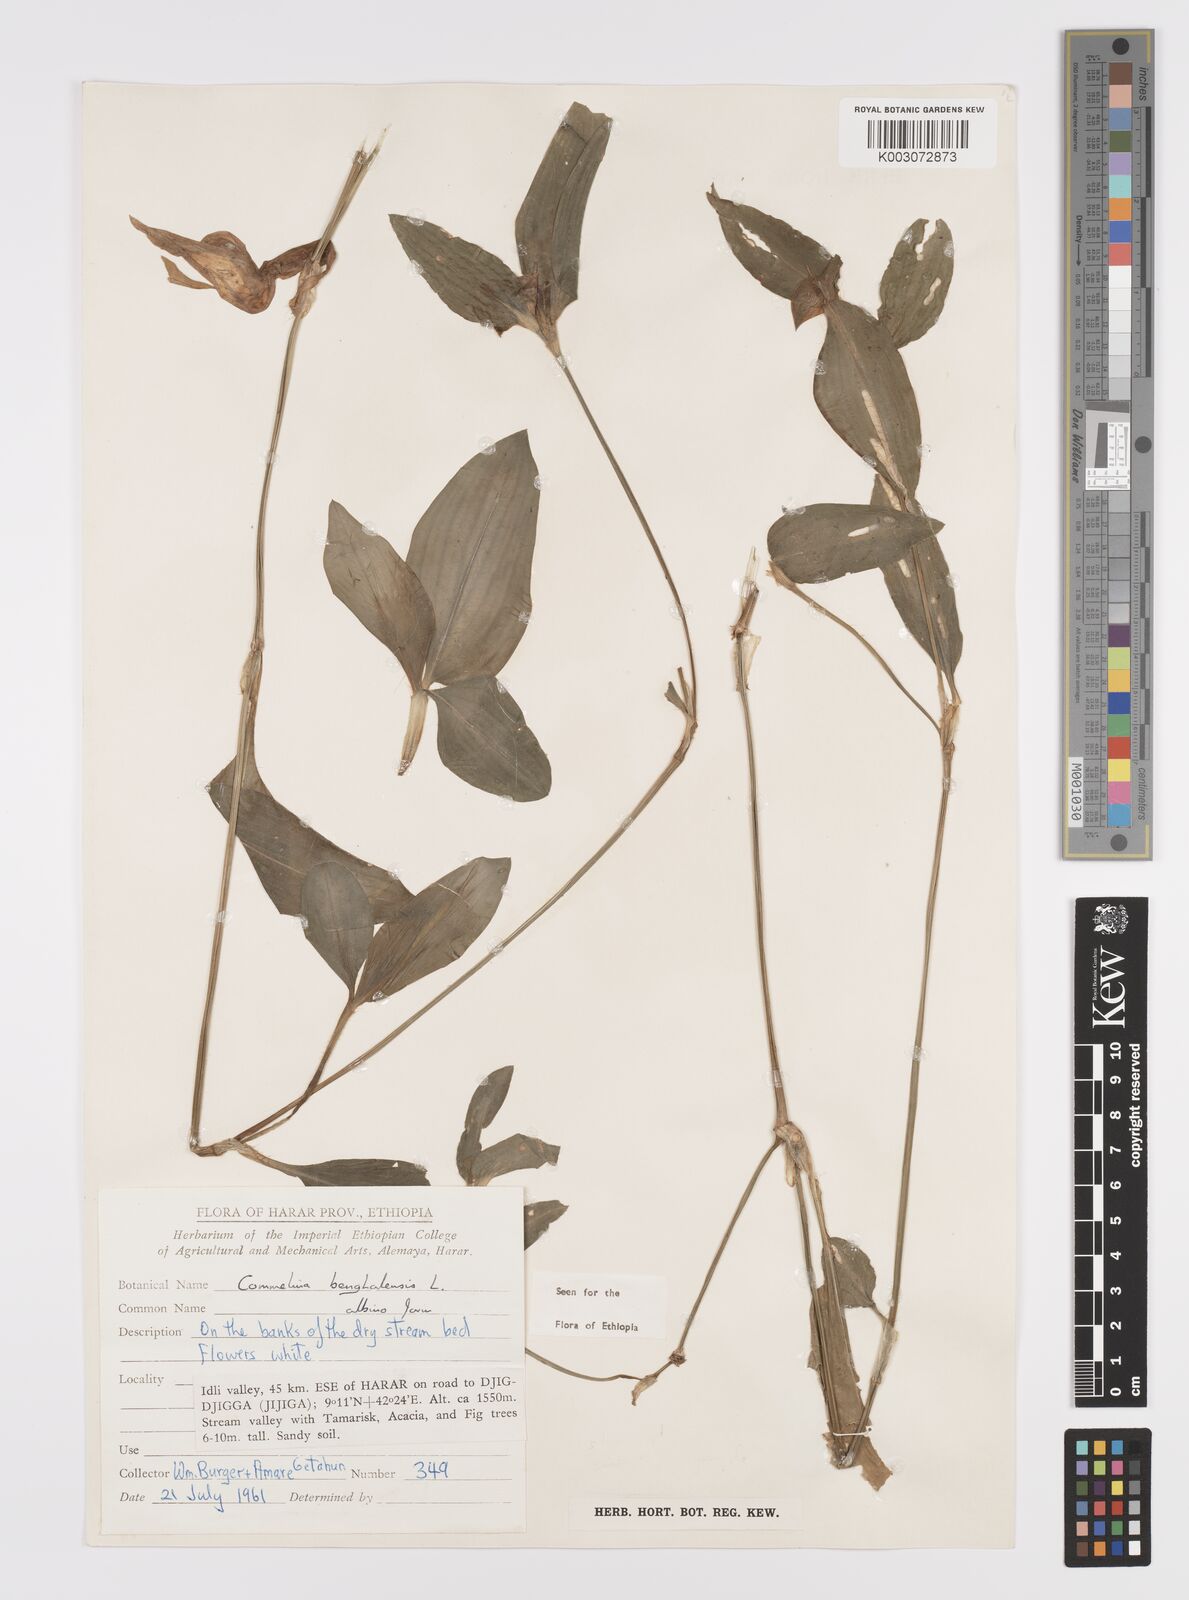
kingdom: Plantae
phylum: Tracheophyta
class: Liliopsida
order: Commelinales
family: Commelinaceae
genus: Commelina
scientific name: Commelina benghalensis
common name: Jio
